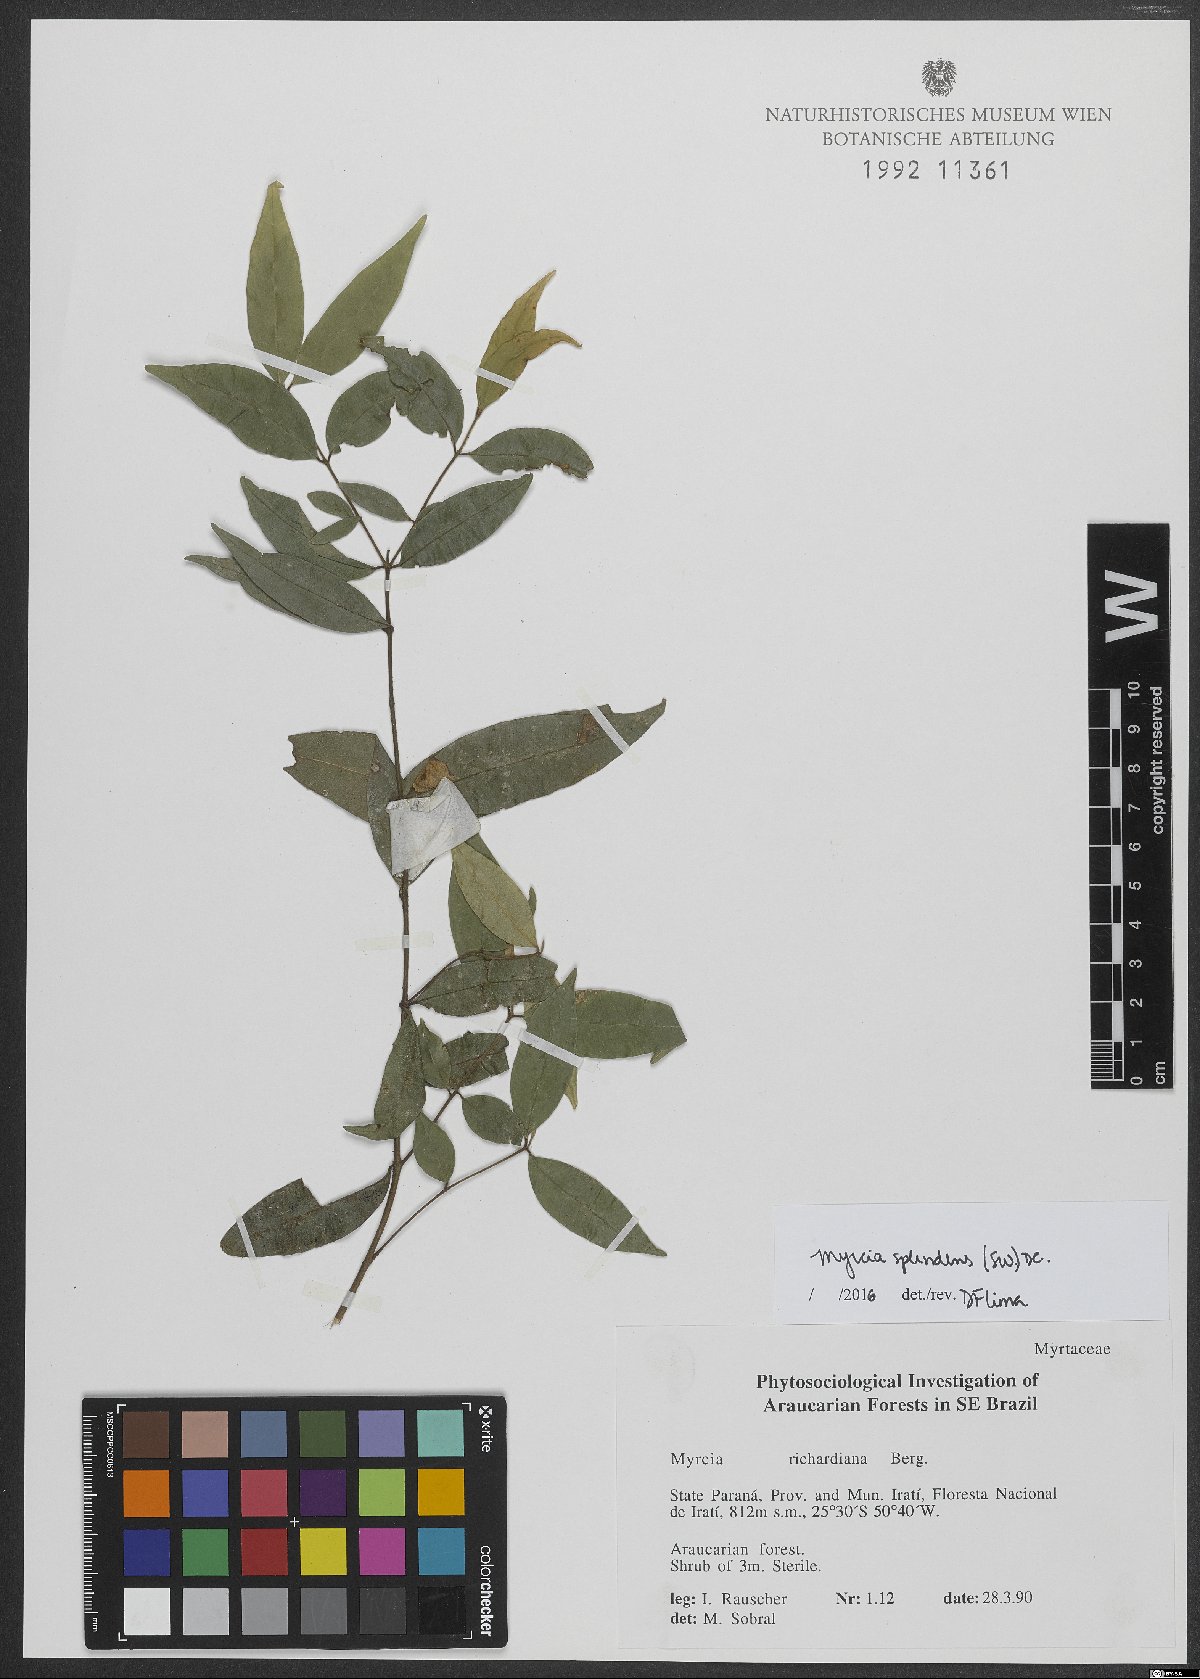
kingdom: Plantae
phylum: Tracheophyta
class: Magnoliopsida
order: Myrtales
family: Myrtaceae
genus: Myrcia
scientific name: Myrcia splendens
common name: Surinam cherry
